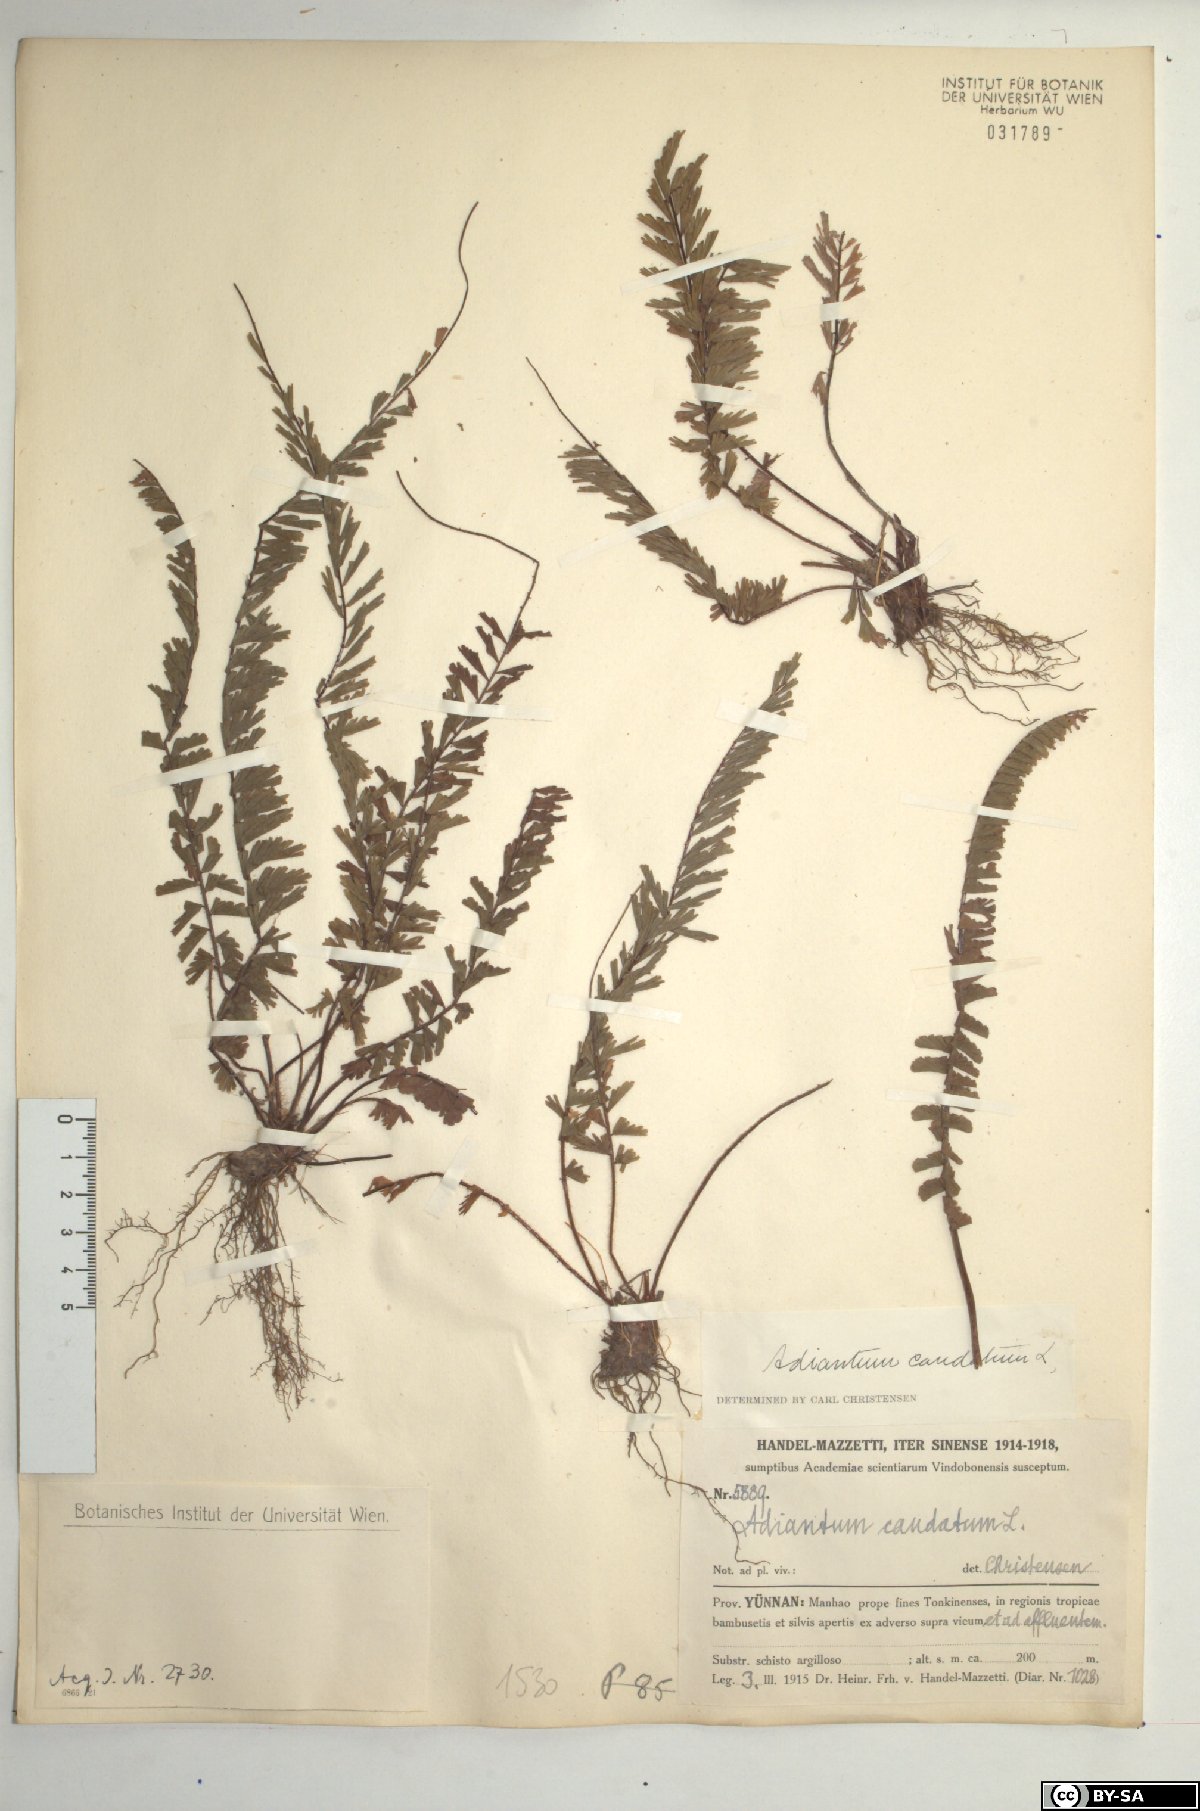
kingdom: Plantae
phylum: Tracheophyta
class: Polypodiopsida
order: Polypodiales
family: Pteridaceae
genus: Adiantum
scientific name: Adiantum caudatum
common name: Tailed maidenhair
